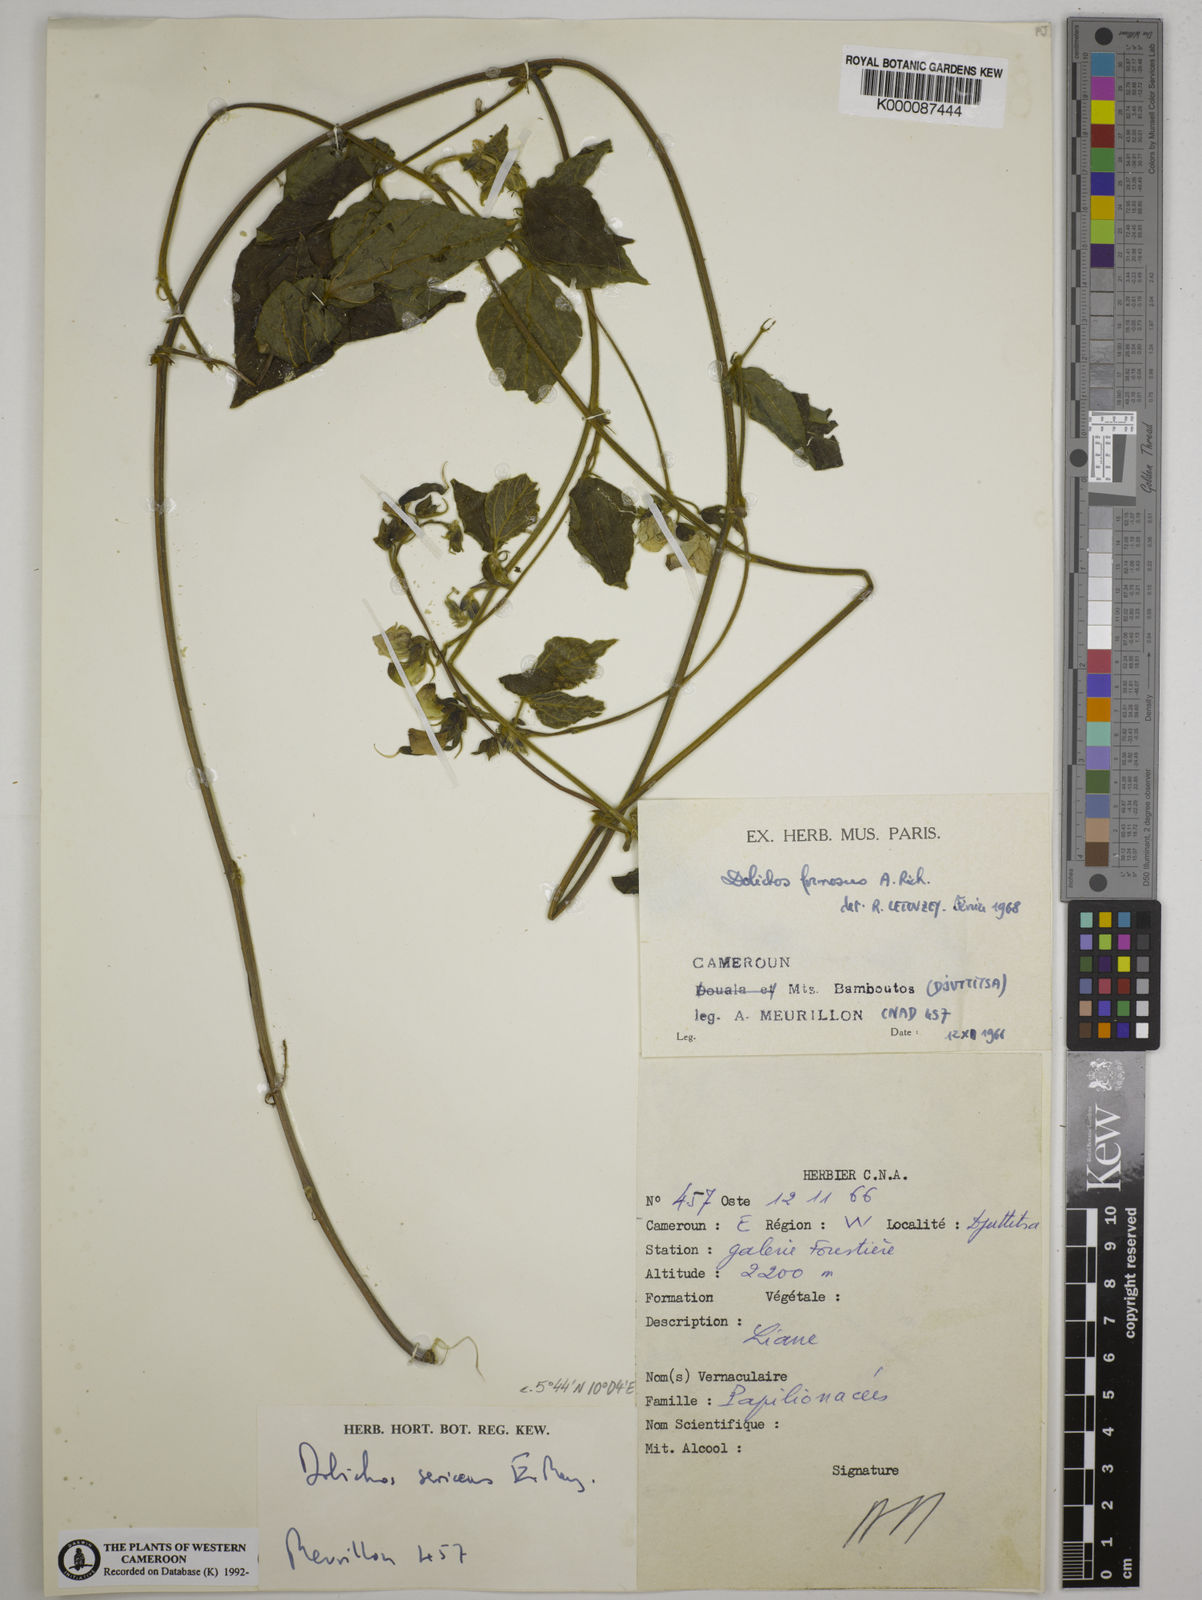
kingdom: Plantae
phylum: Tracheophyta
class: Magnoliopsida
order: Fabales
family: Fabaceae
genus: Dolichos
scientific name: Dolichos sericeus
